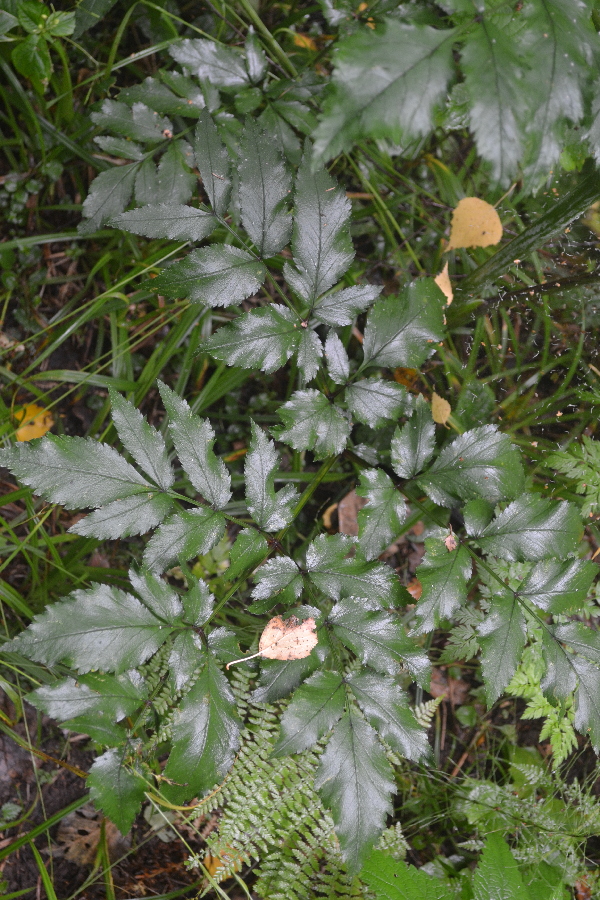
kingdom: Plantae
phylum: Tracheophyta
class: Magnoliopsida
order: Apiales
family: Apiaceae
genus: Angelica
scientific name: Angelica sylvestris
